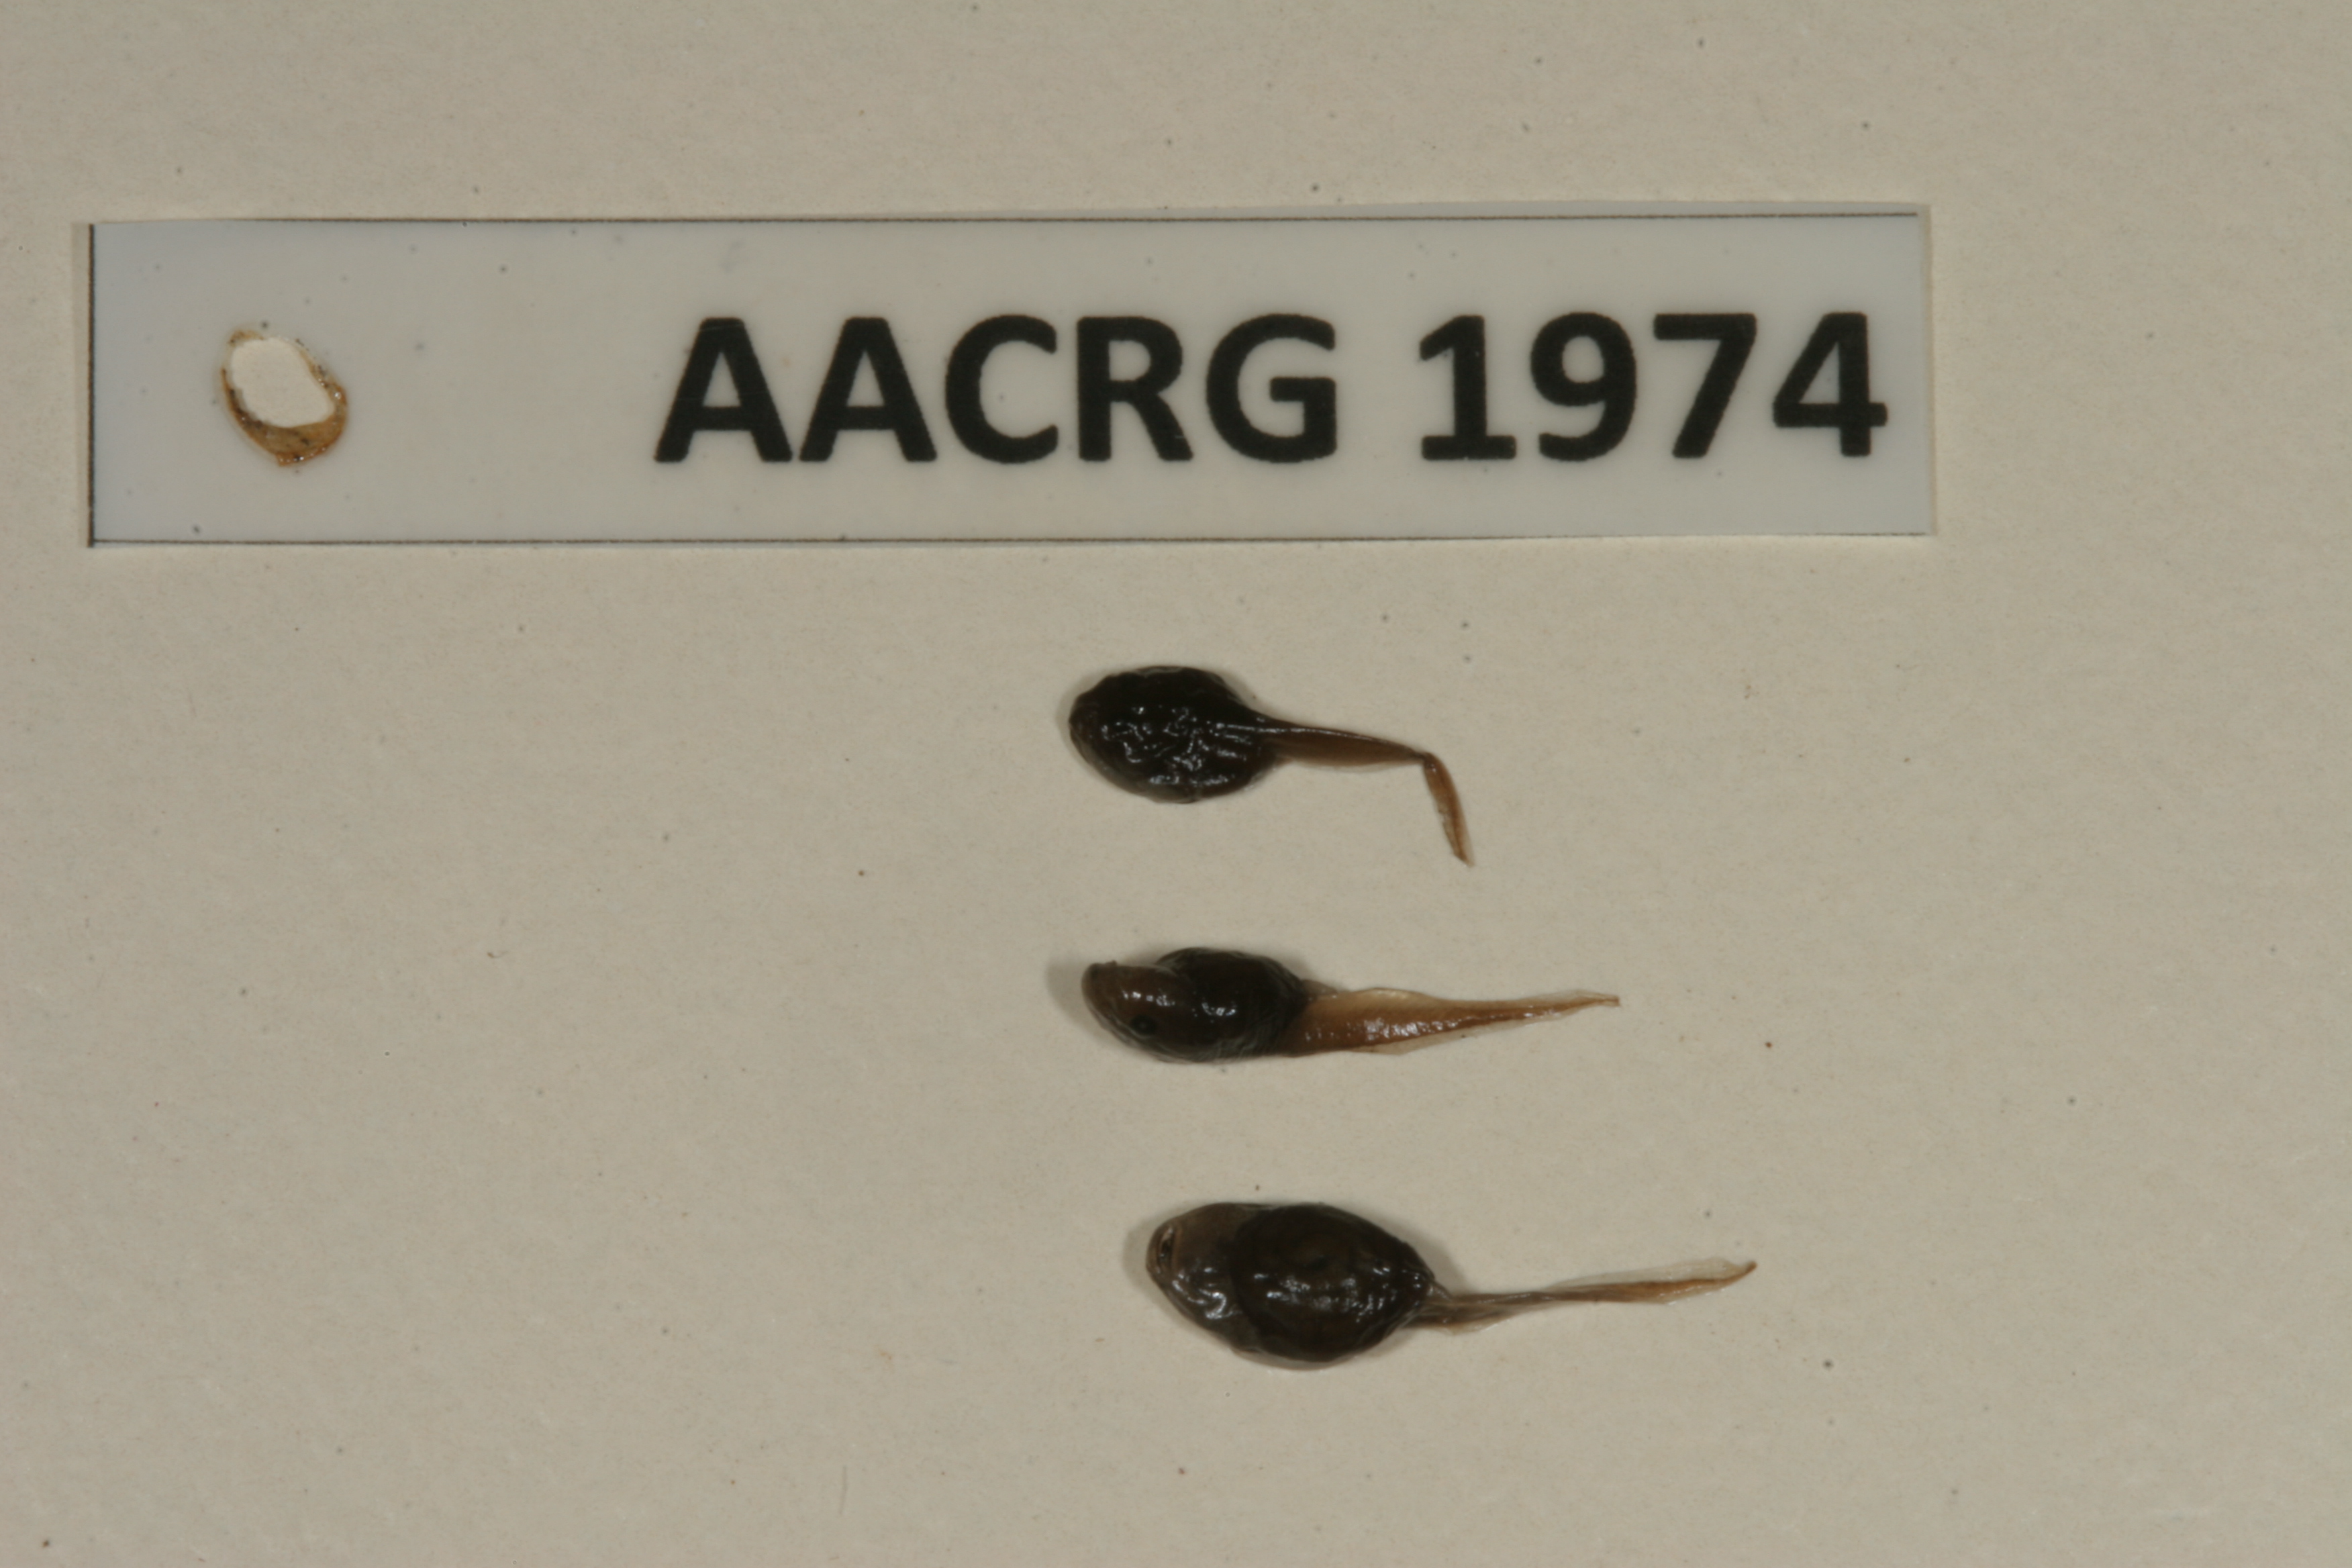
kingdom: Animalia
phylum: Chordata
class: Amphibia
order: Anura
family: Bufonidae
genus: Sclerophrys
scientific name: Sclerophrys gutturalis
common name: African common toad
